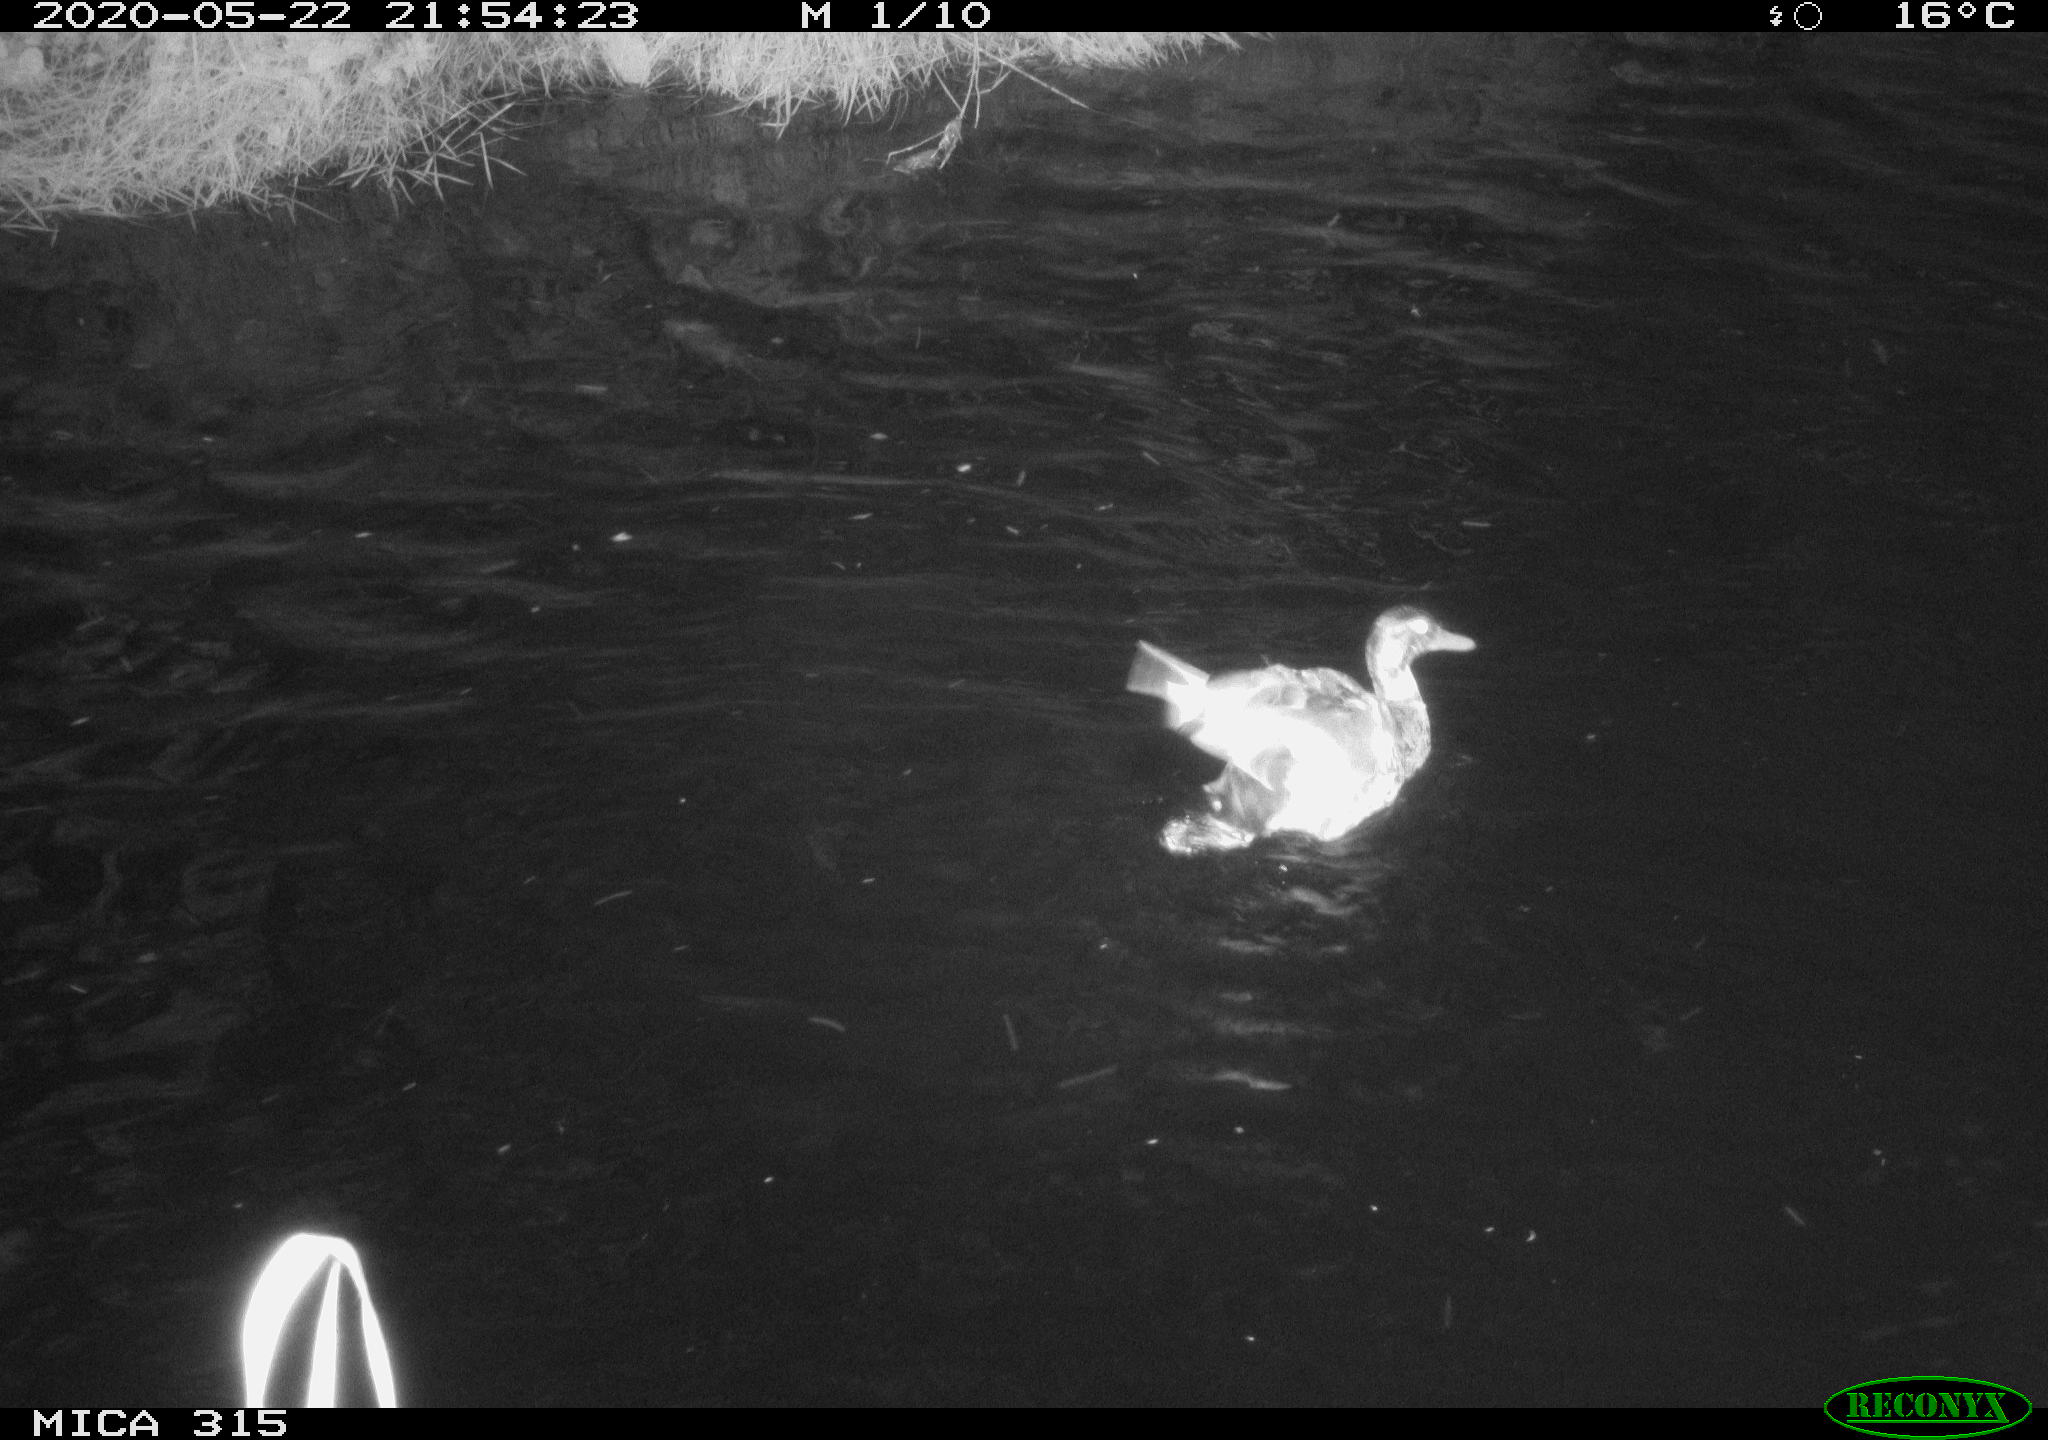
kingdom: Animalia
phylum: Chordata
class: Aves
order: Anseriformes
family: Anatidae
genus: Anas
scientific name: Anas platyrhynchos
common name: Mallard
